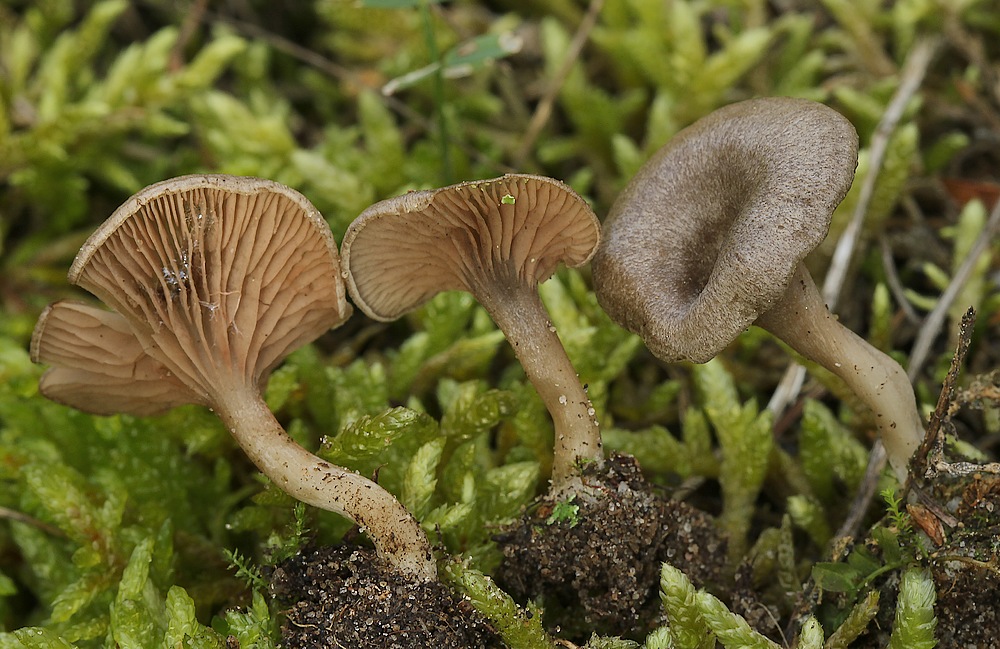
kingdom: Fungi
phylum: Basidiomycota
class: Agaricomycetes
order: Agaricales
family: Entolomataceae
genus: Entoloma
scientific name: Entoloma undatum
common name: bæltet rødblad
